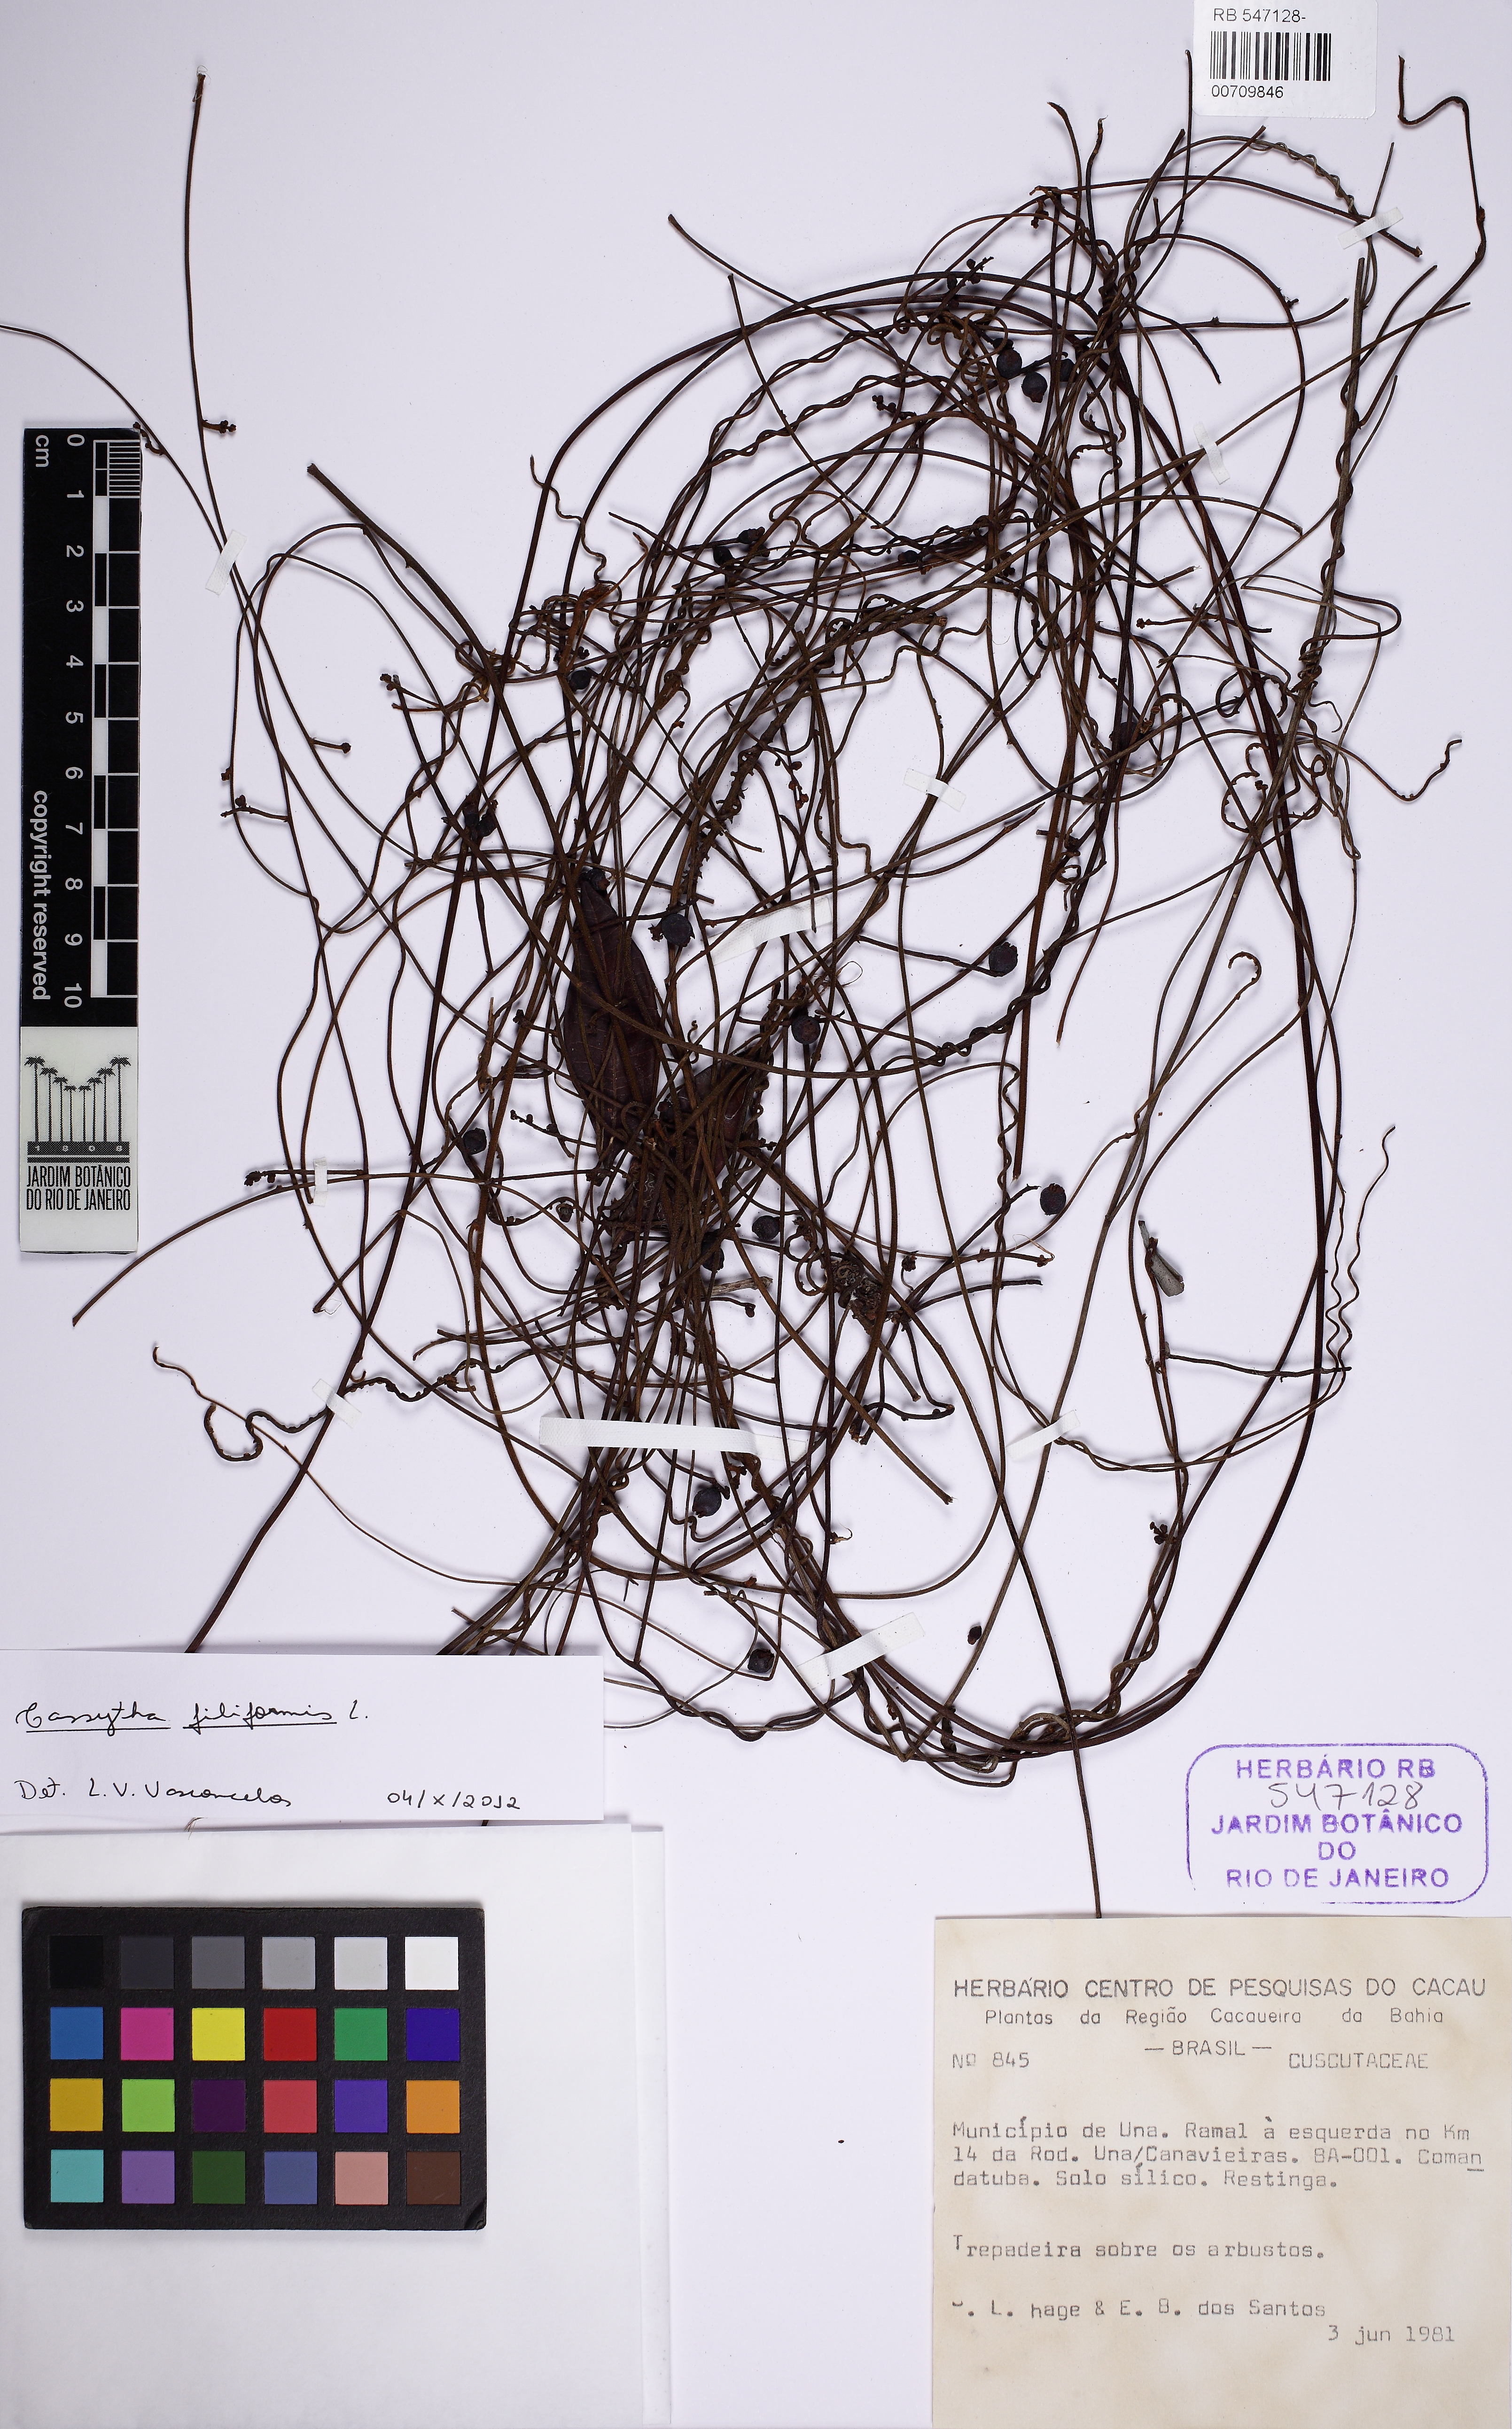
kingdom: Plantae
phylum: Tracheophyta
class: Magnoliopsida
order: Laurales
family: Lauraceae
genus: Cassytha
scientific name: Cassytha filiformis
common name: Dodder-laurel
